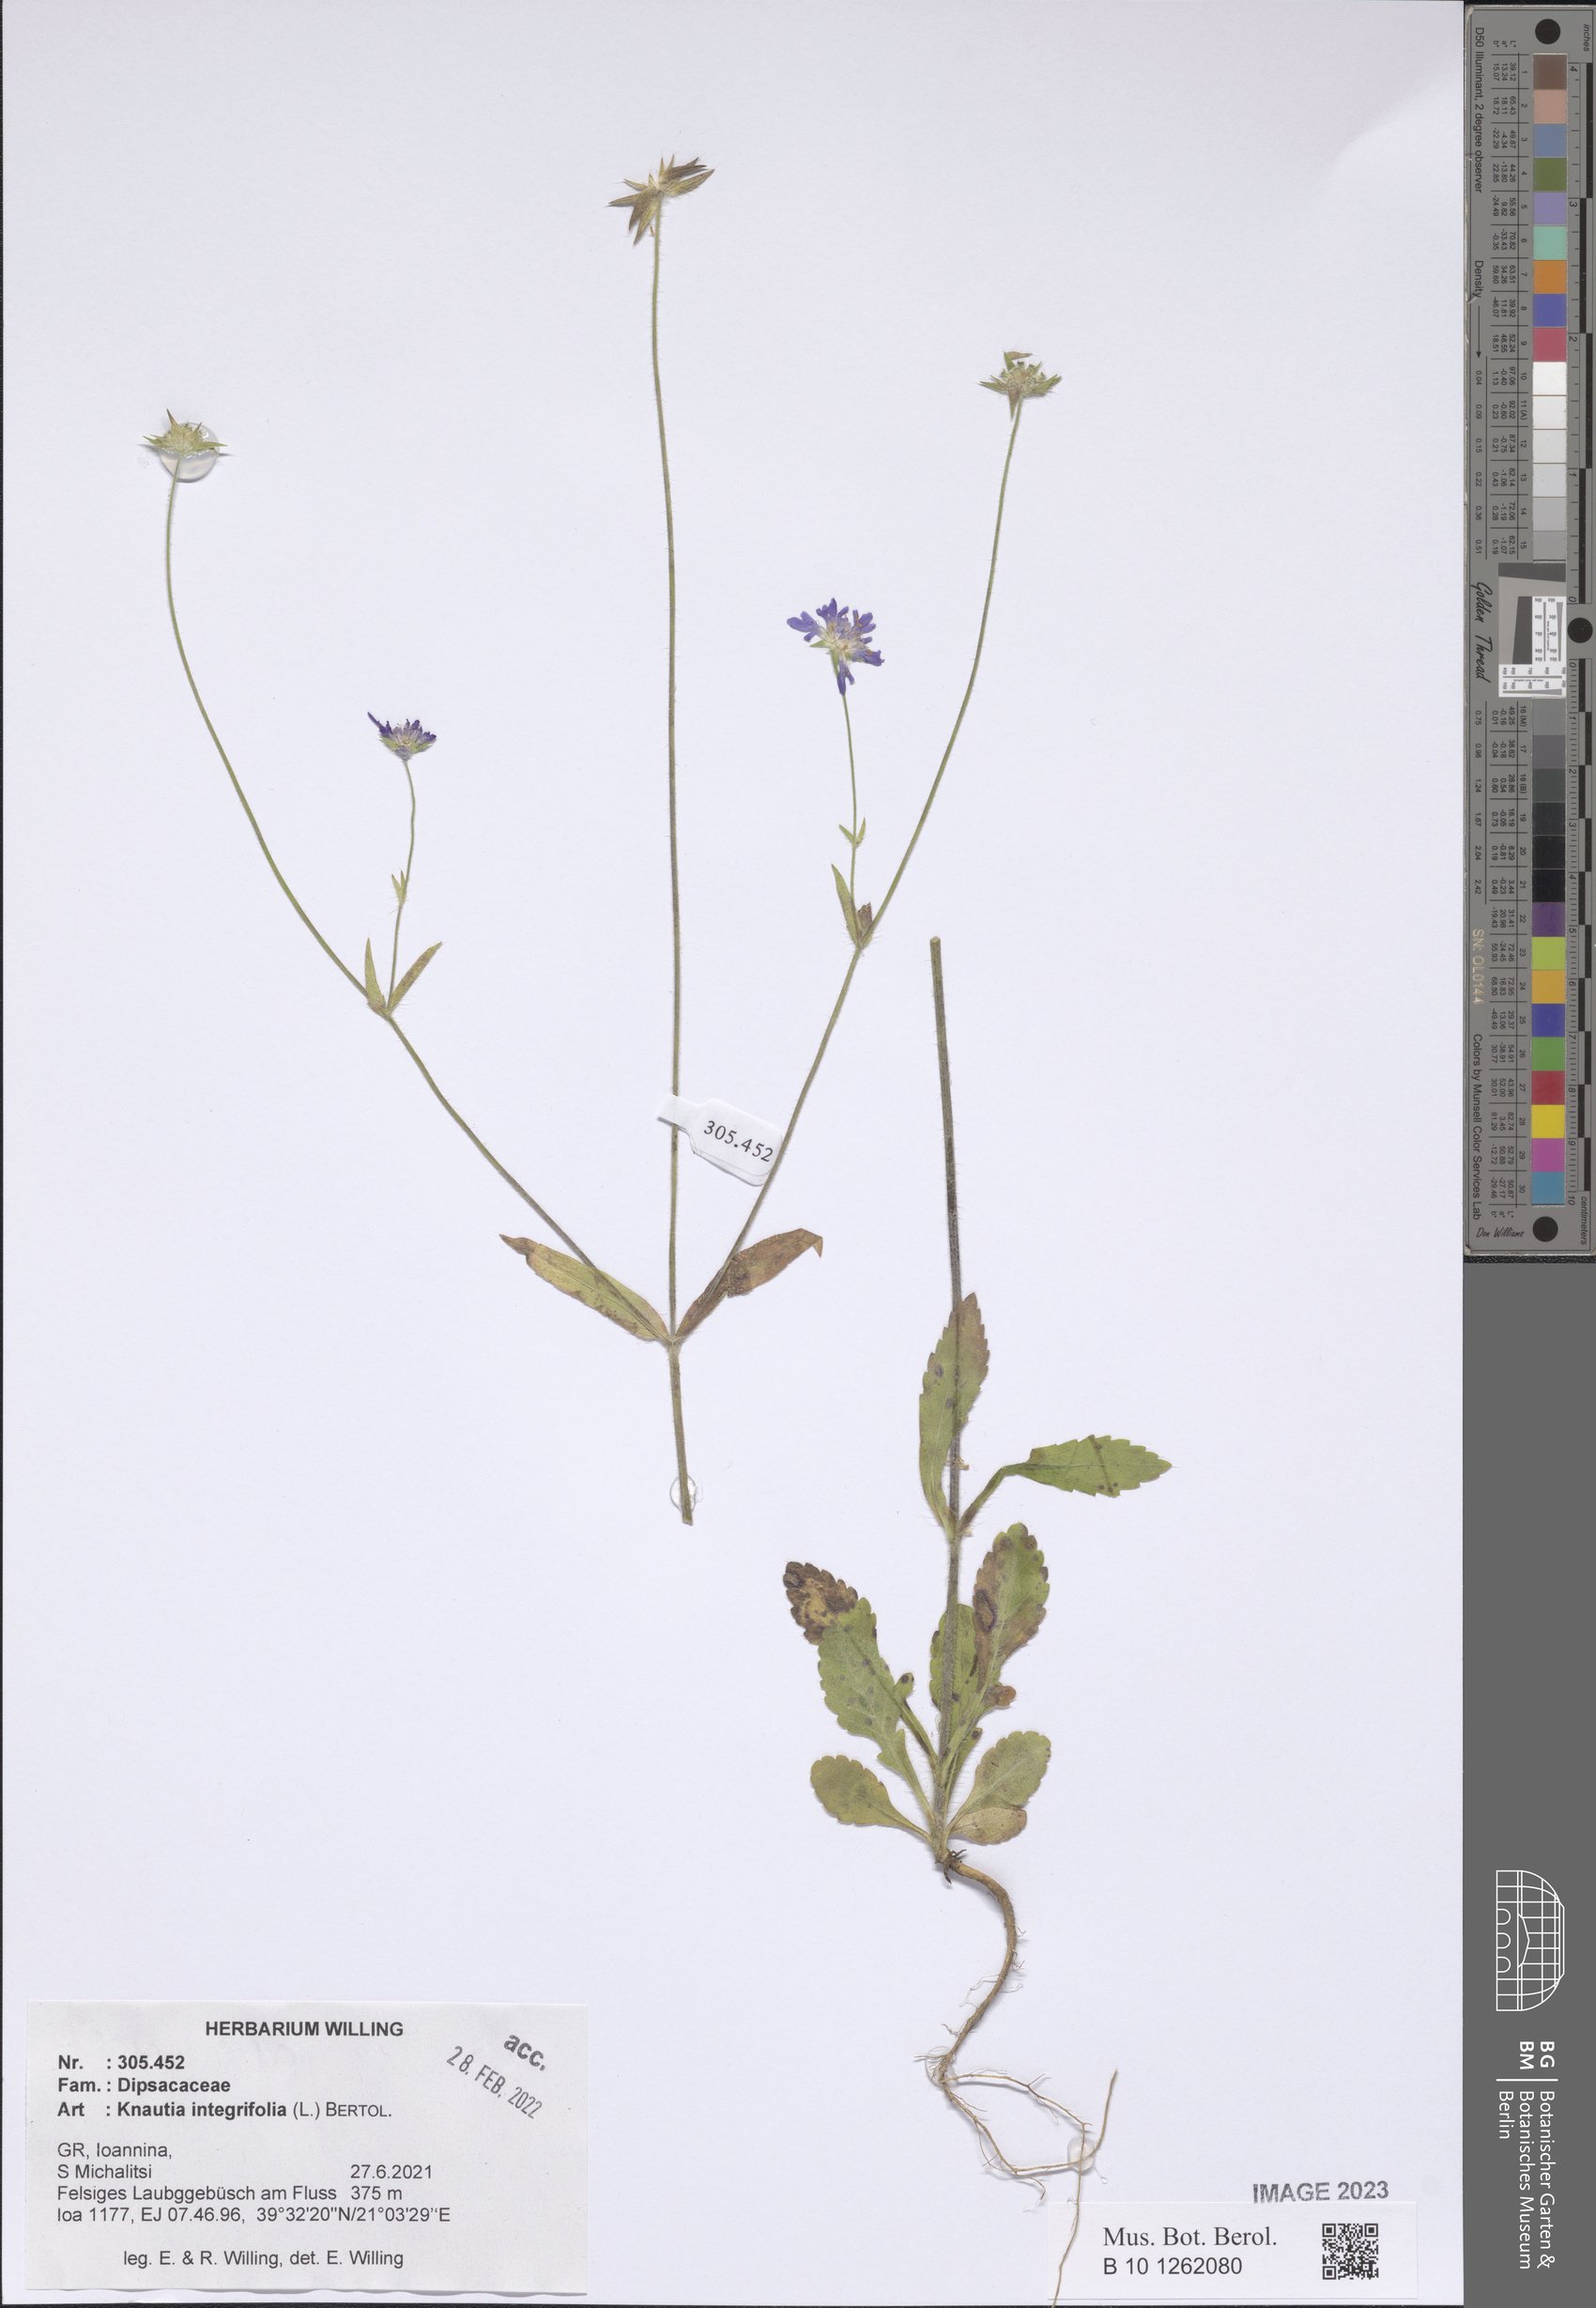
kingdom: Plantae
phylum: Tracheophyta
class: Magnoliopsida
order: Dipsacales
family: Caprifoliaceae
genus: Knautia
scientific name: Knautia integrifolia
